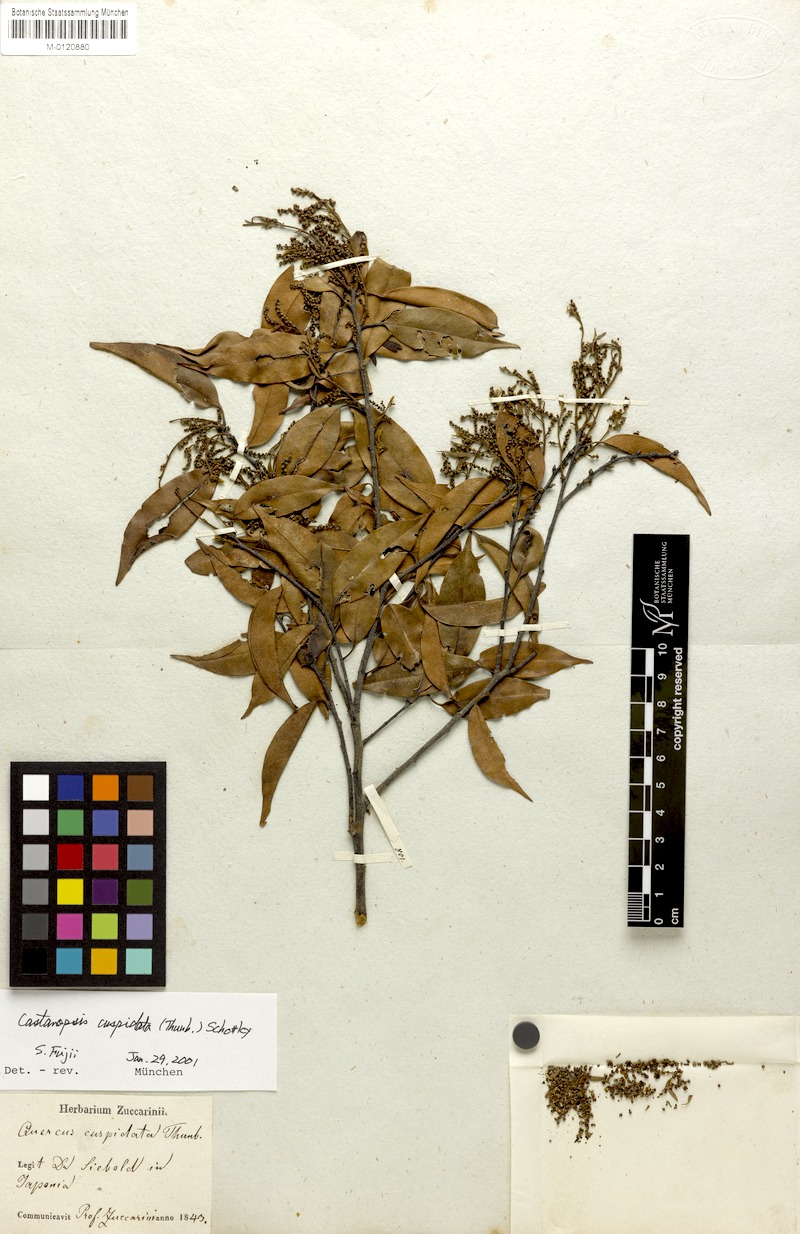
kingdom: Plantae
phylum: Tracheophyta
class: Magnoliopsida
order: Fagales
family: Fagaceae
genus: Castanopsis
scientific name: Castanopsis cuspidata
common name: Japanese chinquapin
